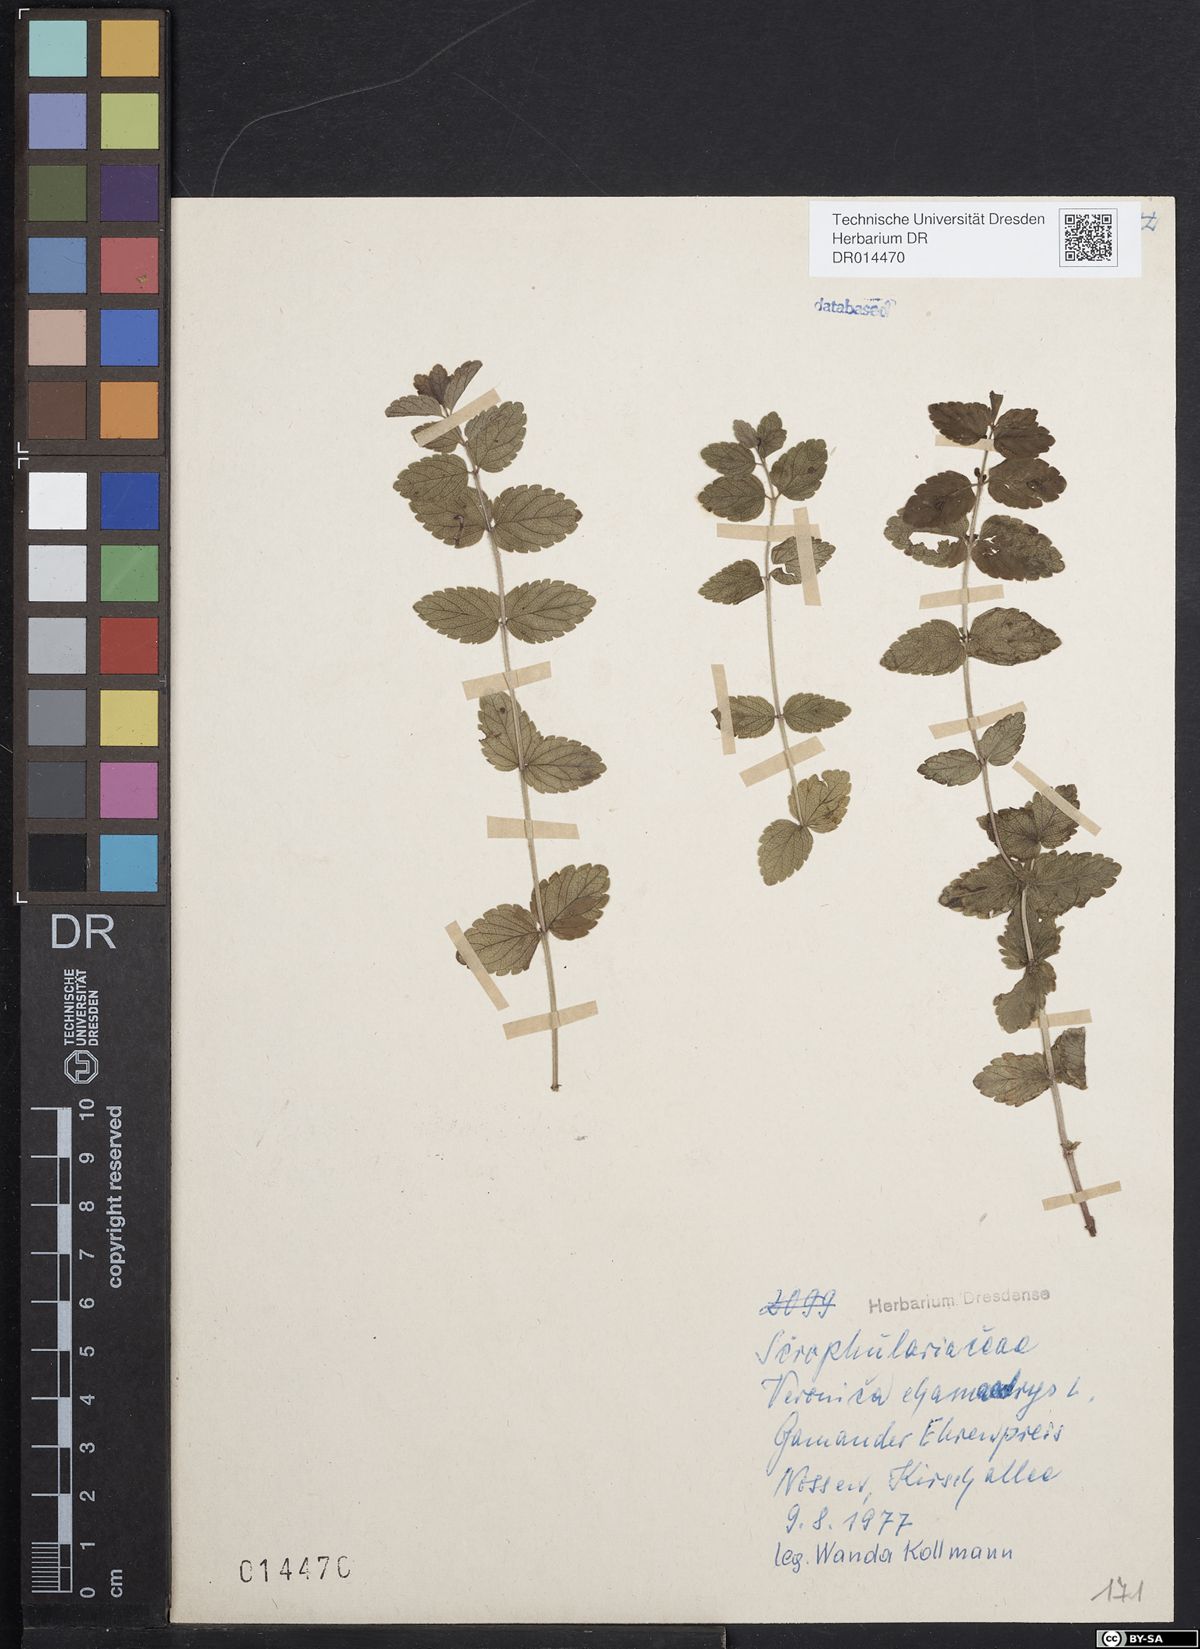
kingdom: Plantae
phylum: Tracheophyta
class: Magnoliopsida
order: Lamiales
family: Plantaginaceae
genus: Veronica
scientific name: Veronica chamaedrys
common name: Germander speedwell
